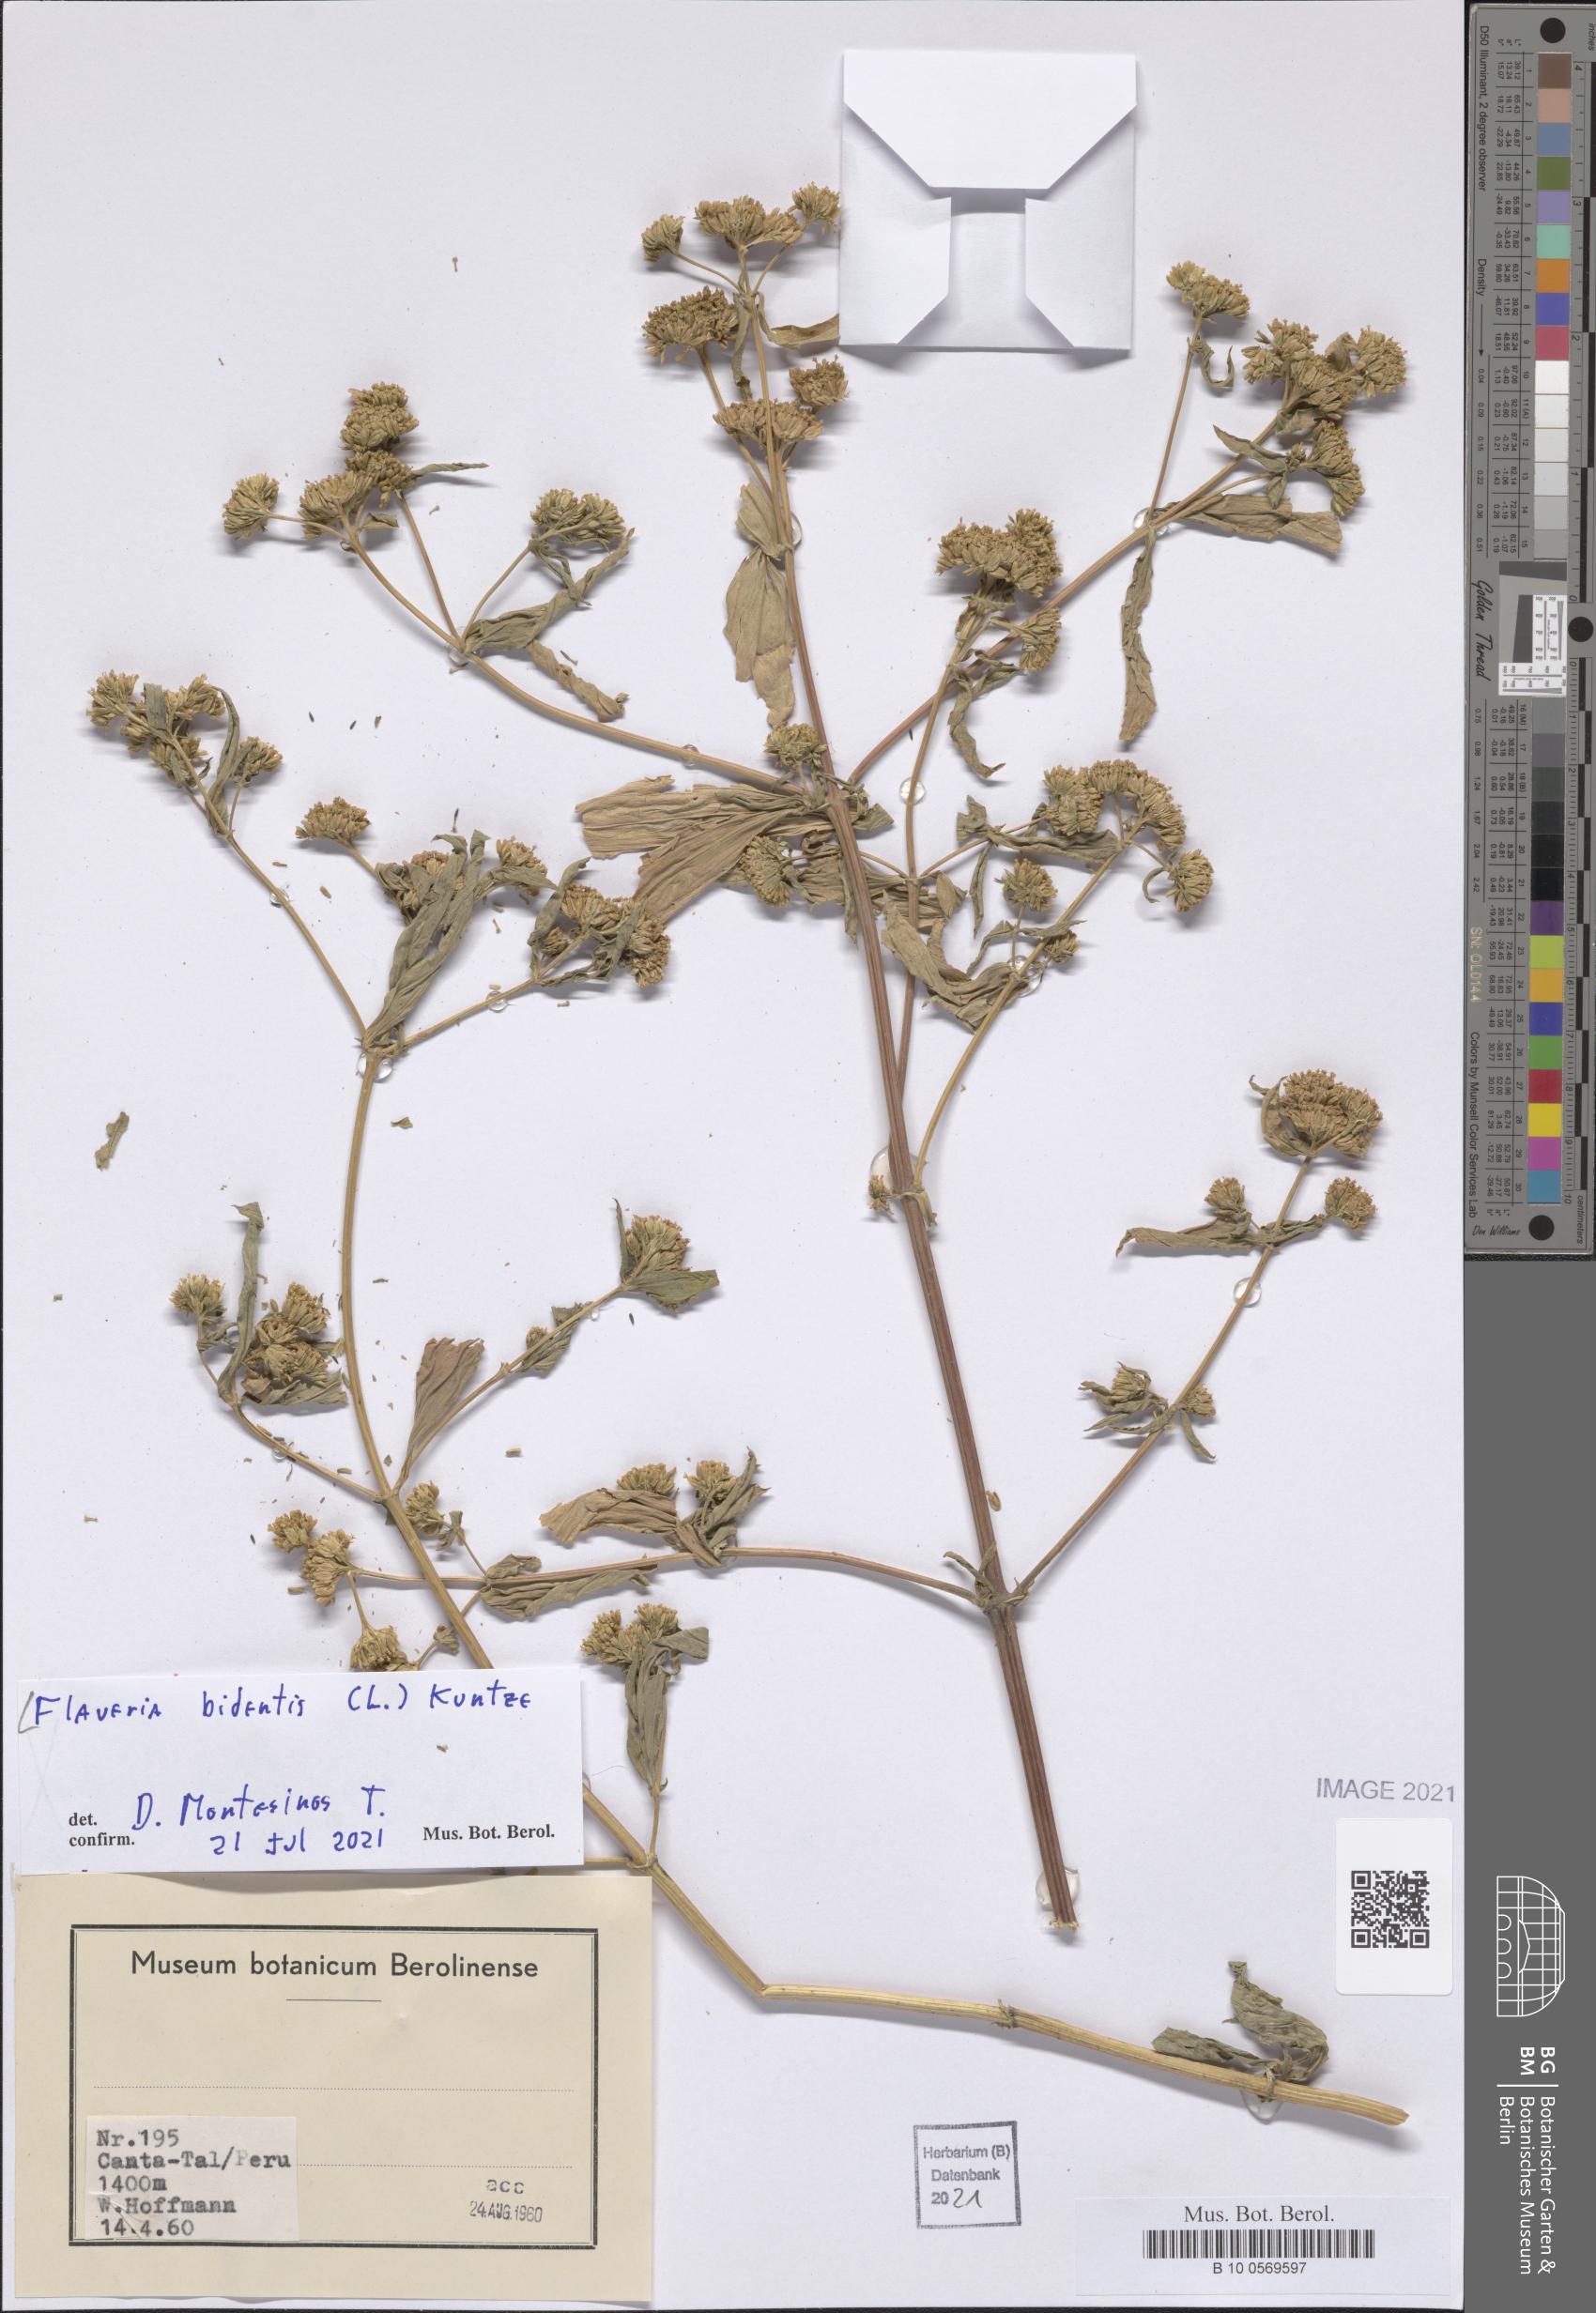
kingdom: Plantae
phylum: Tracheophyta
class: Magnoliopsida
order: Asterales
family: Asteraceae
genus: Flaveria
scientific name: Flaveria bidentis
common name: Coastal plain yellowtops
